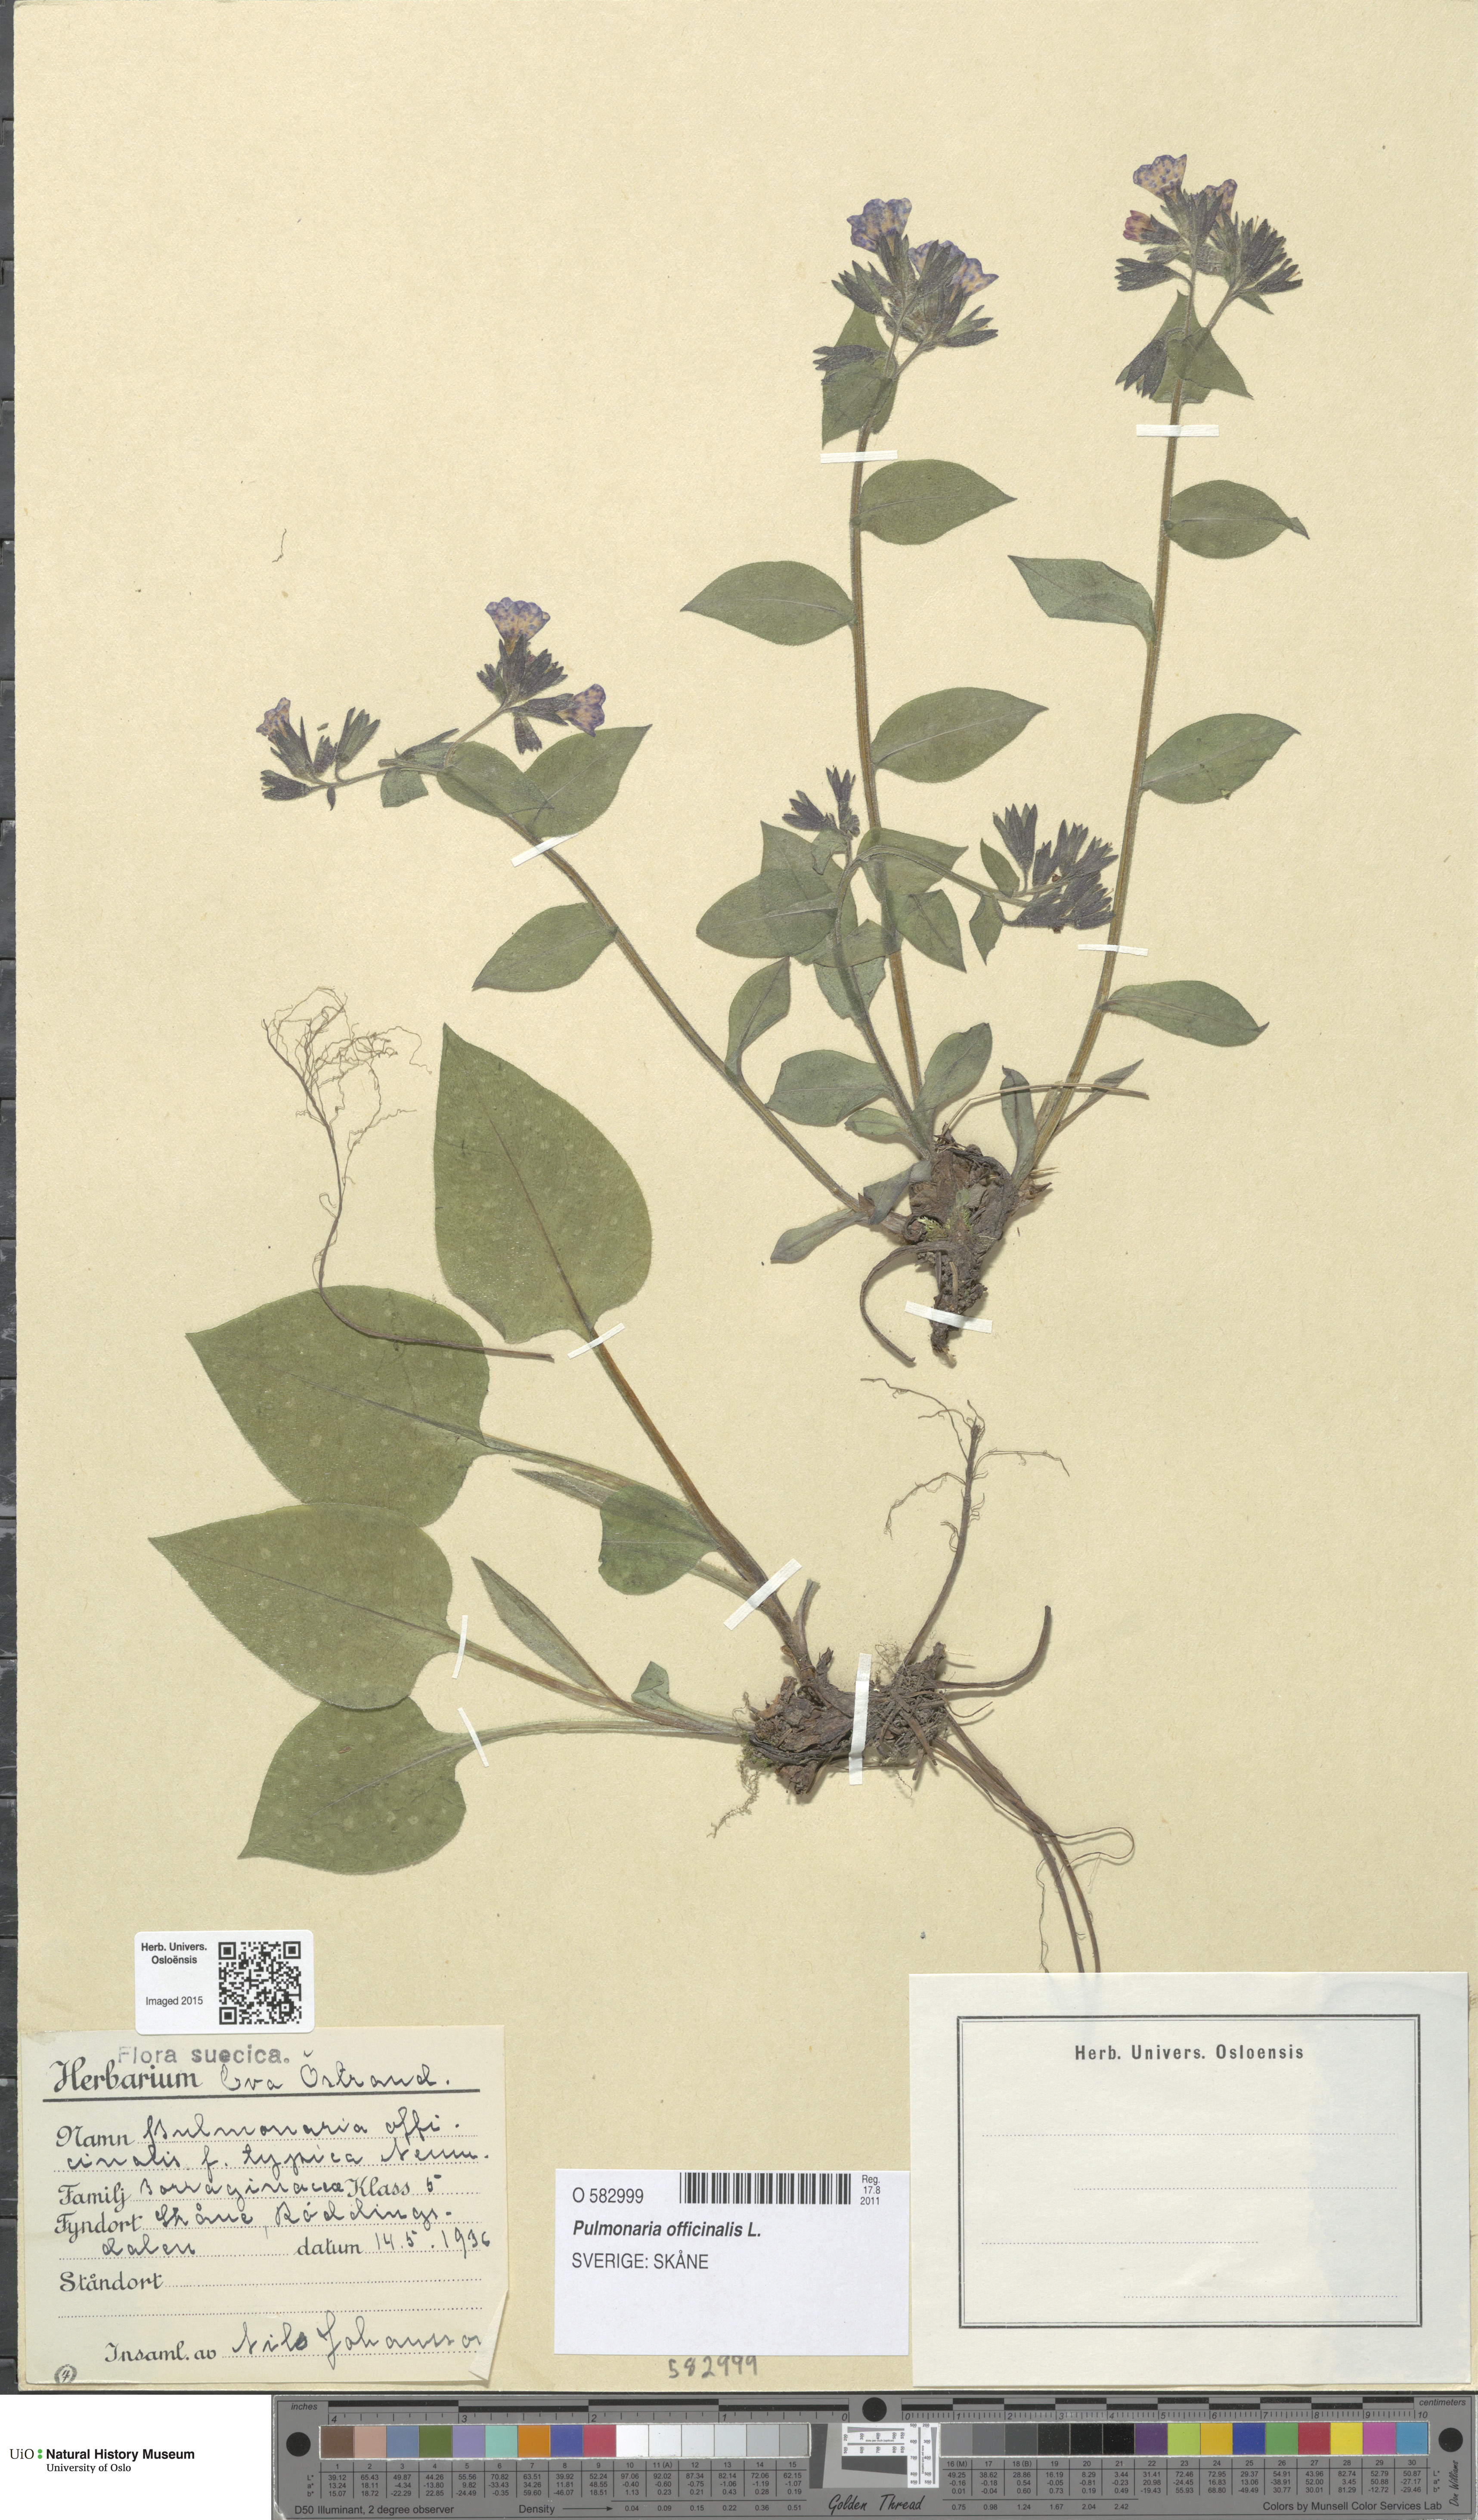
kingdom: Plantae
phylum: Tracheophyta
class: Magnoliopsida
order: Boraginales
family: Boraginaceae
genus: Pulmonaria
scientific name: Pulmonaria officinalis
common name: Lungwort
